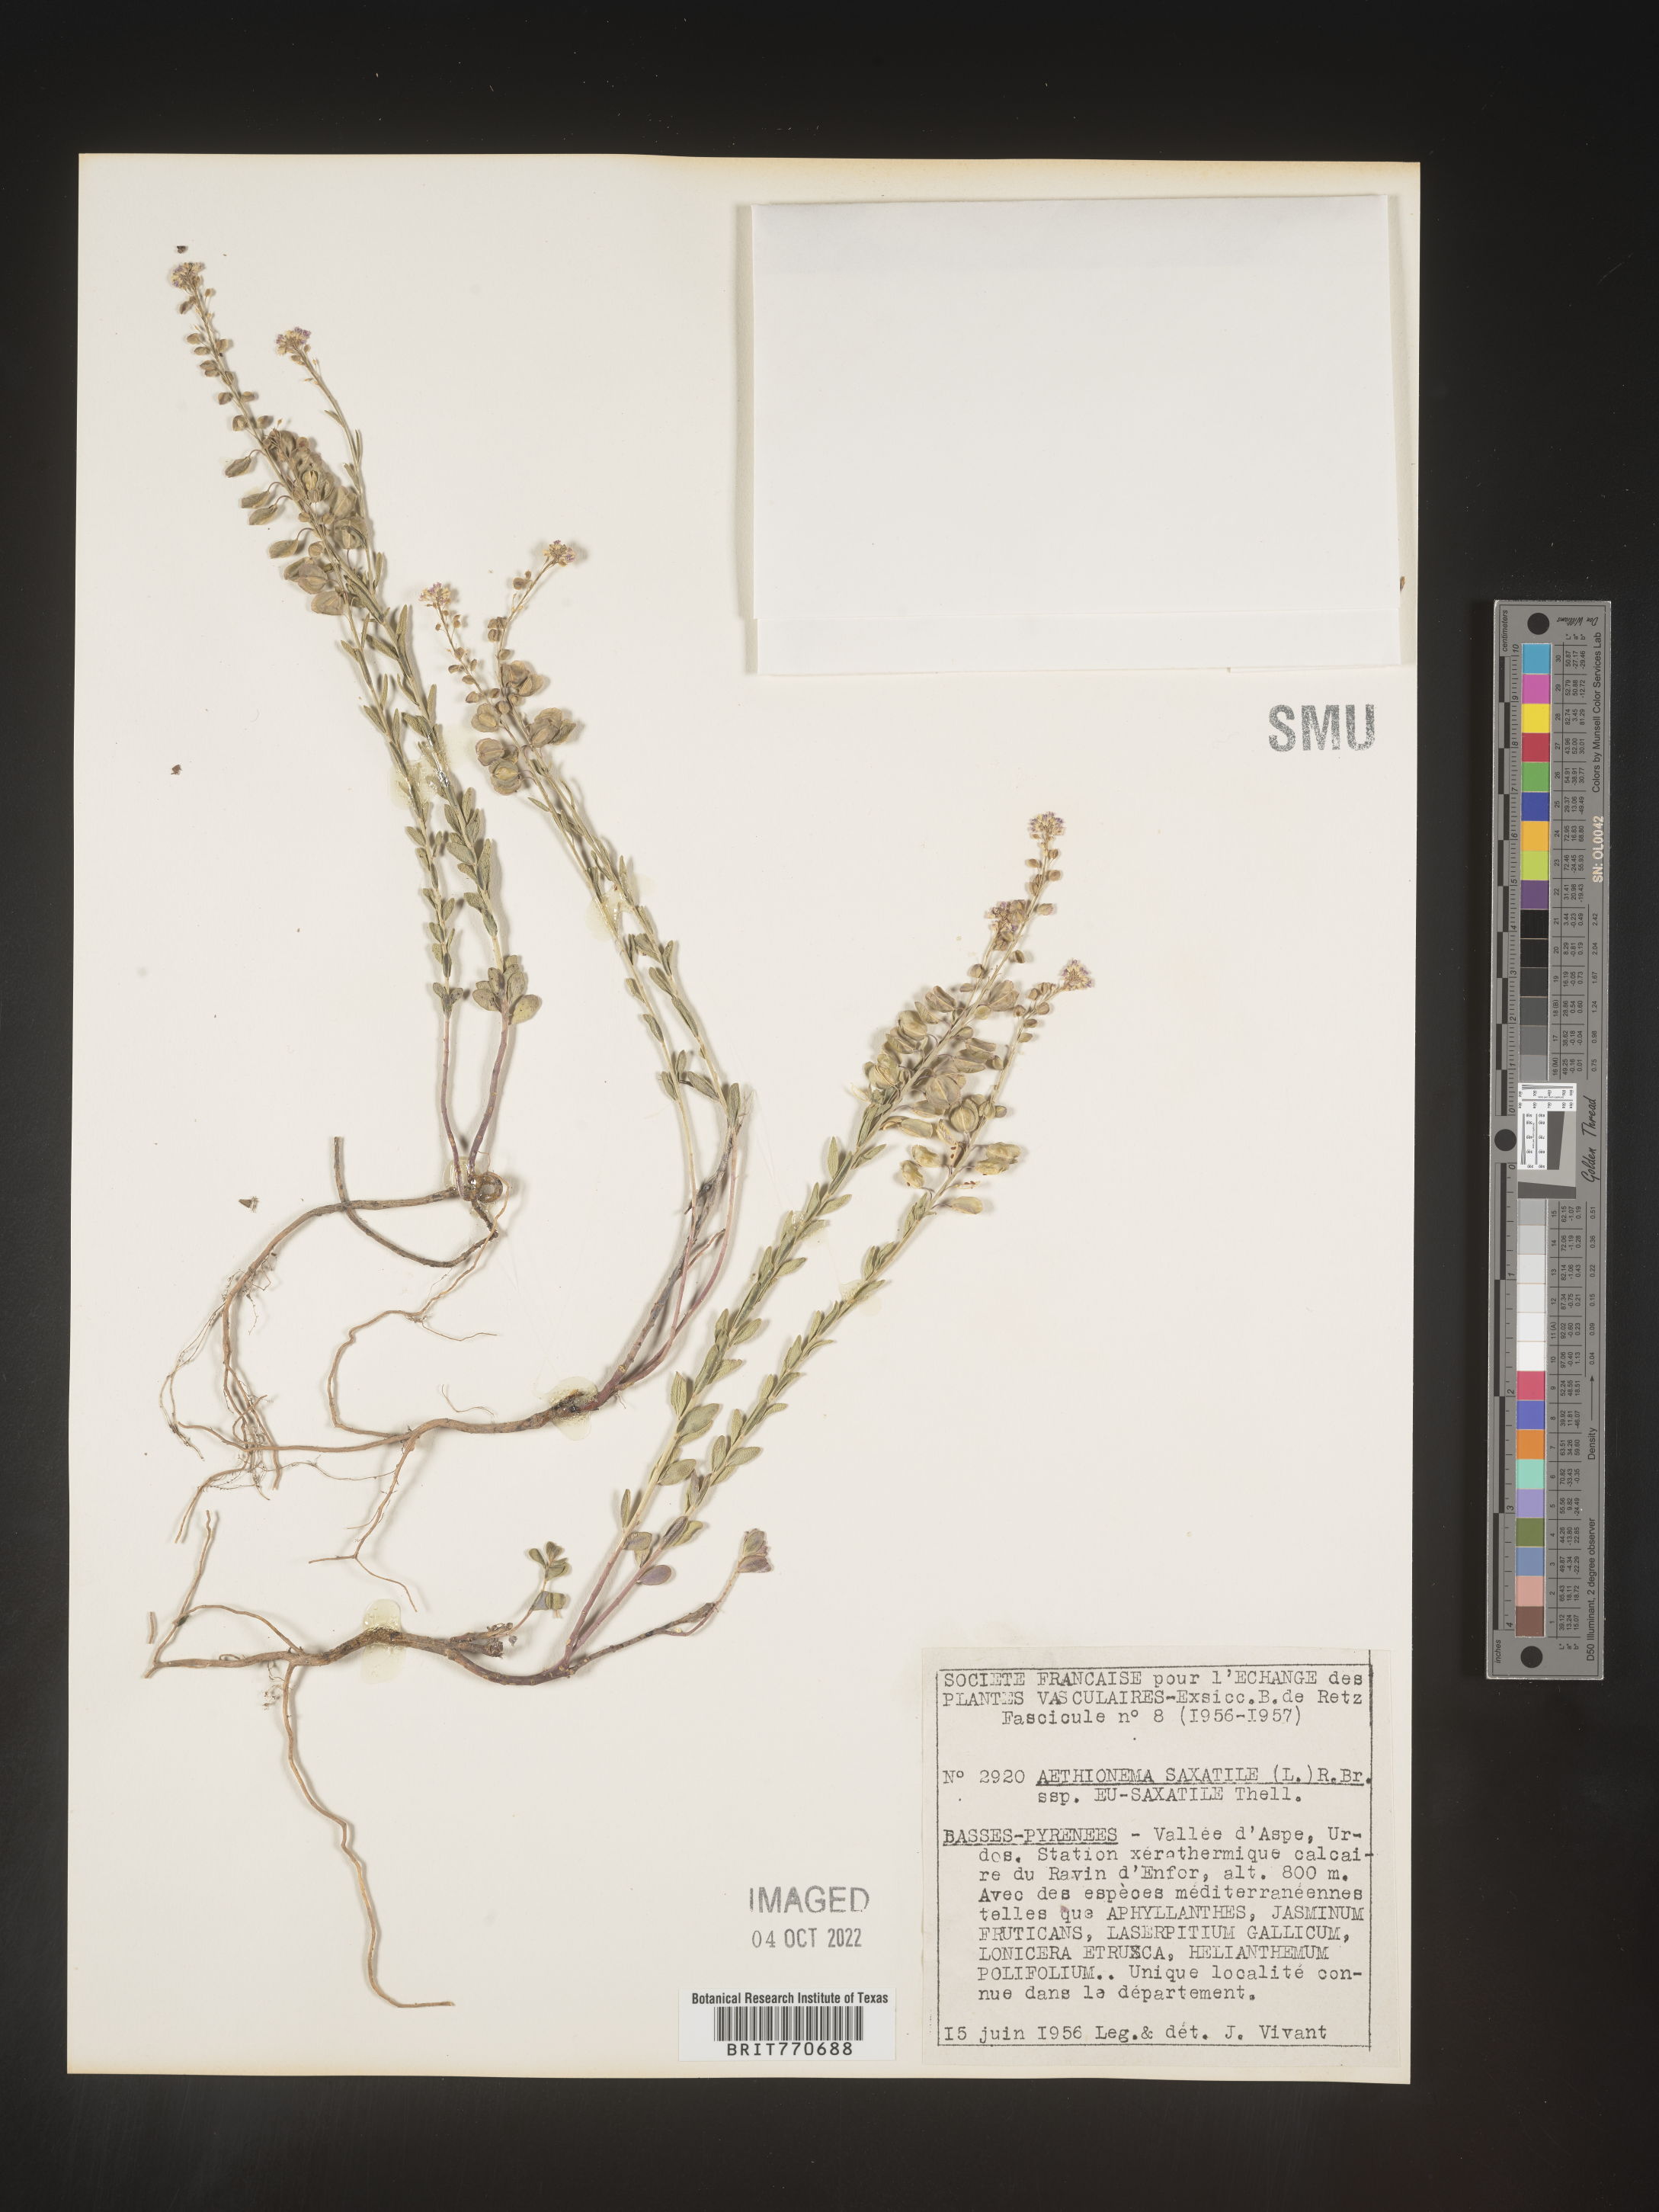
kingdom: Plantae
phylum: Tracheophyta
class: Magnoliopsida
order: Brassicales
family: Brassicaceae
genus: Aethionema
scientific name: Aethionema
